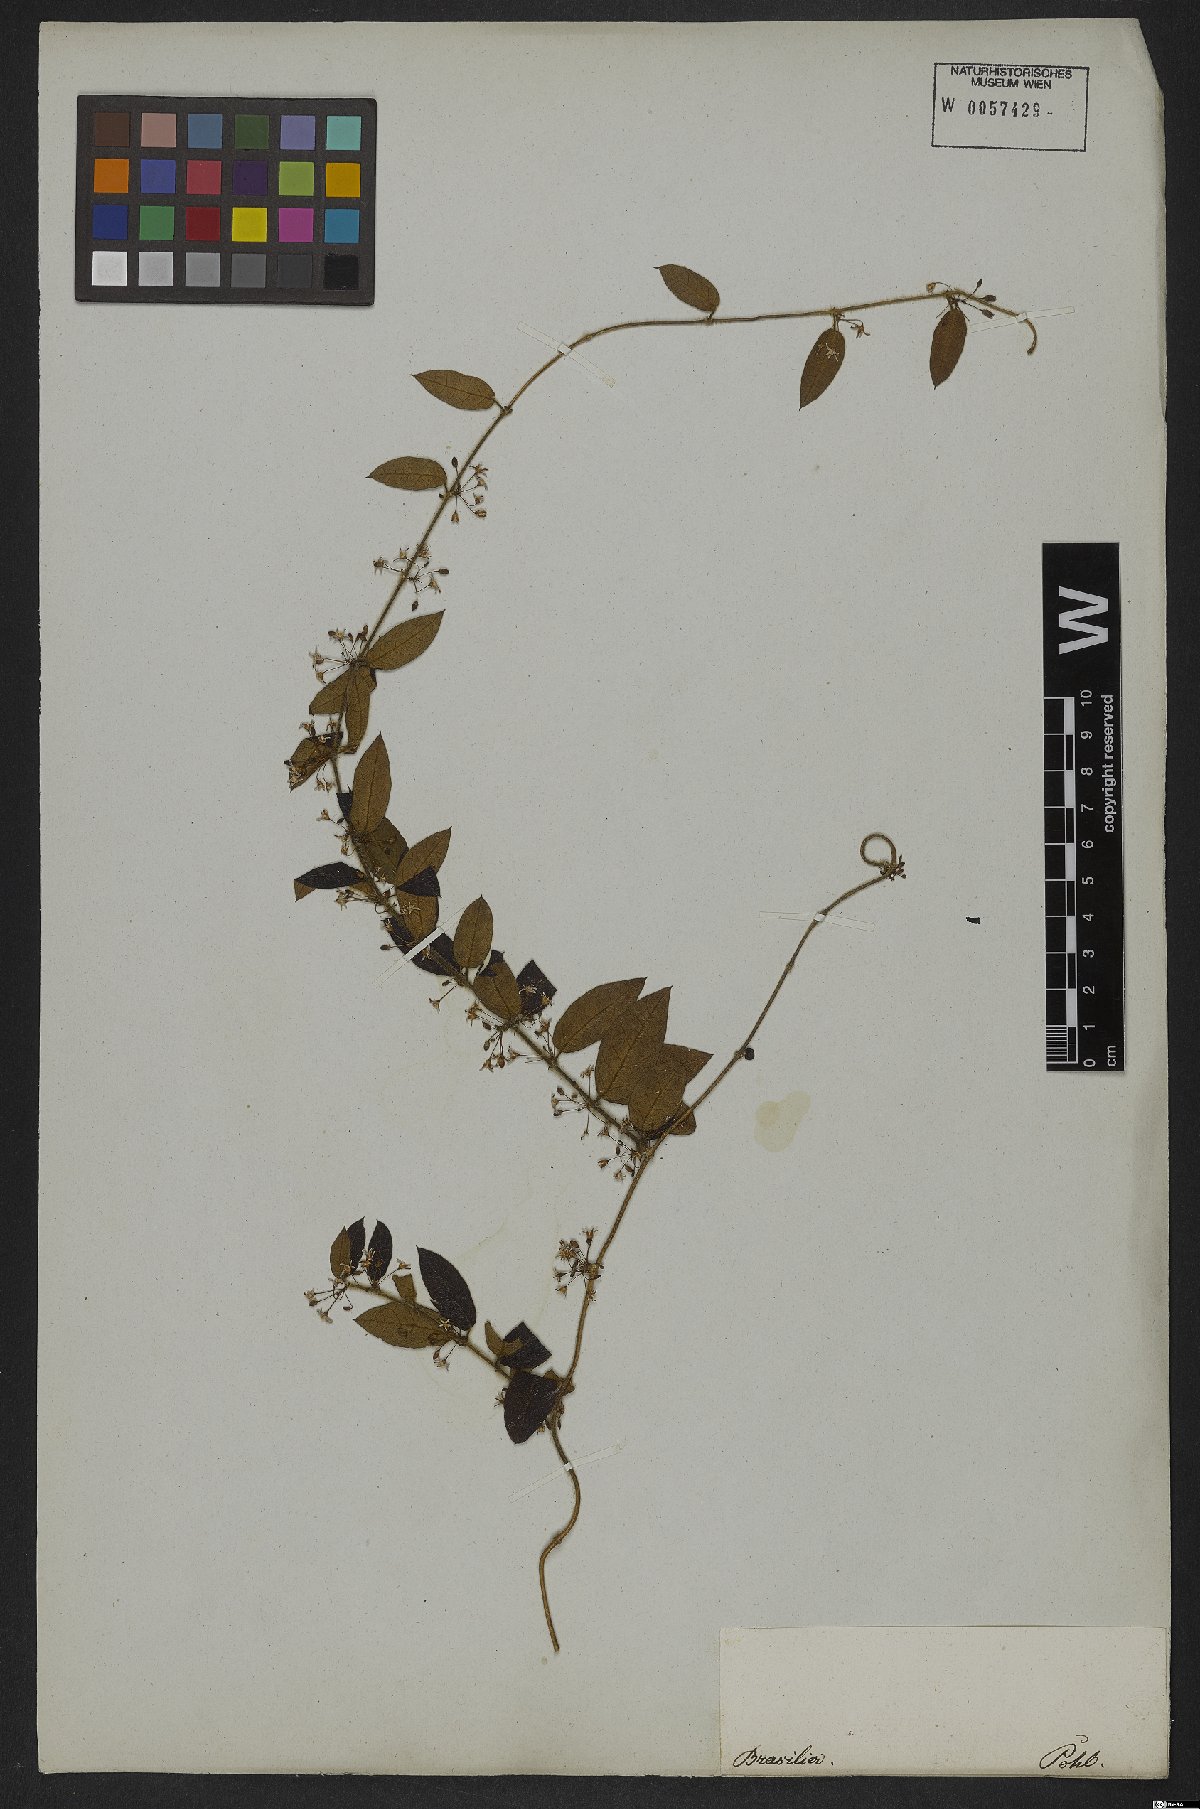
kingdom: Plantae
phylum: Tracheophyta
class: Magnoliopsida
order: Gentianales
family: Apocynaceae
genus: Ditassa
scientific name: Ditassa hispida
